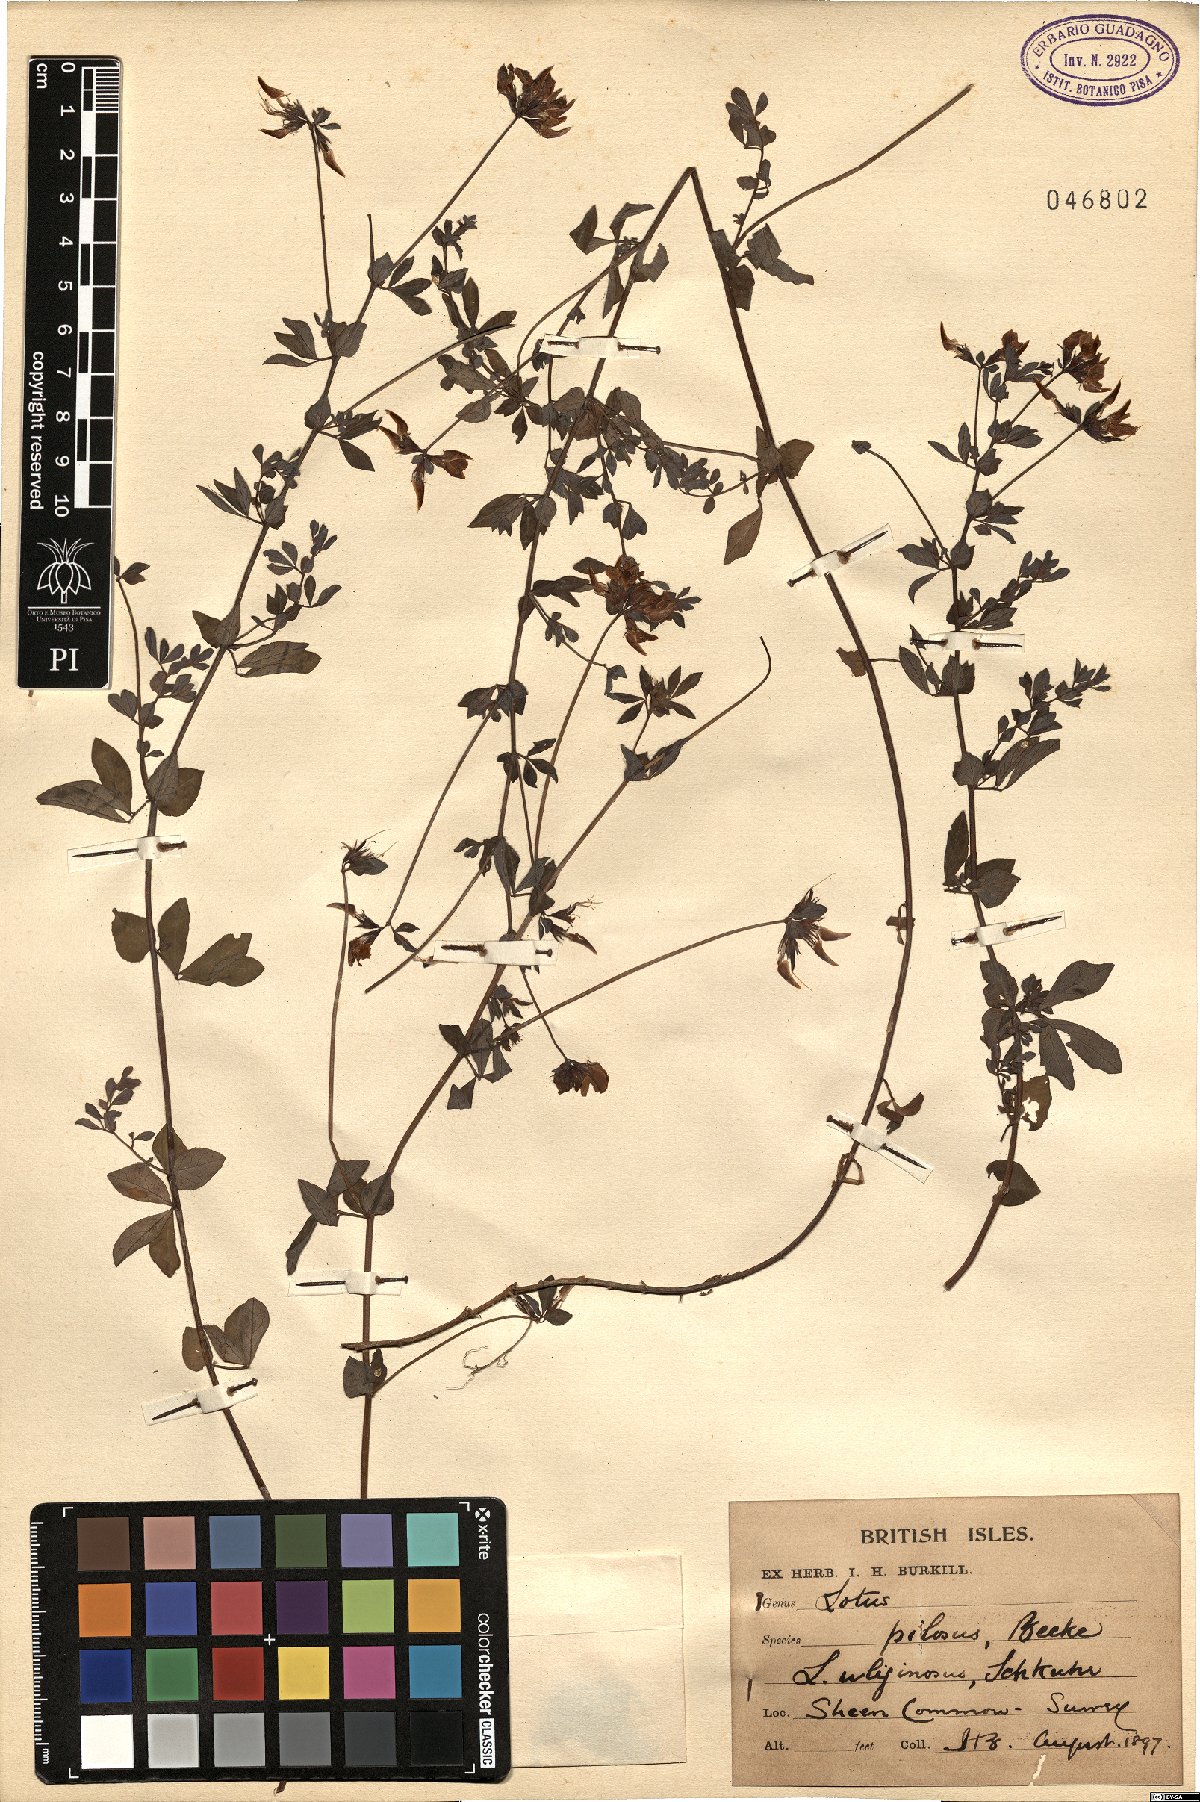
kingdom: Plantae
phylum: Tracheophyta
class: Magnoliopsida
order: Fabales
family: Fabaceae
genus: Lotus
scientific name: Lotus pedunculatus
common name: Greater birdsfoot-trefoil
